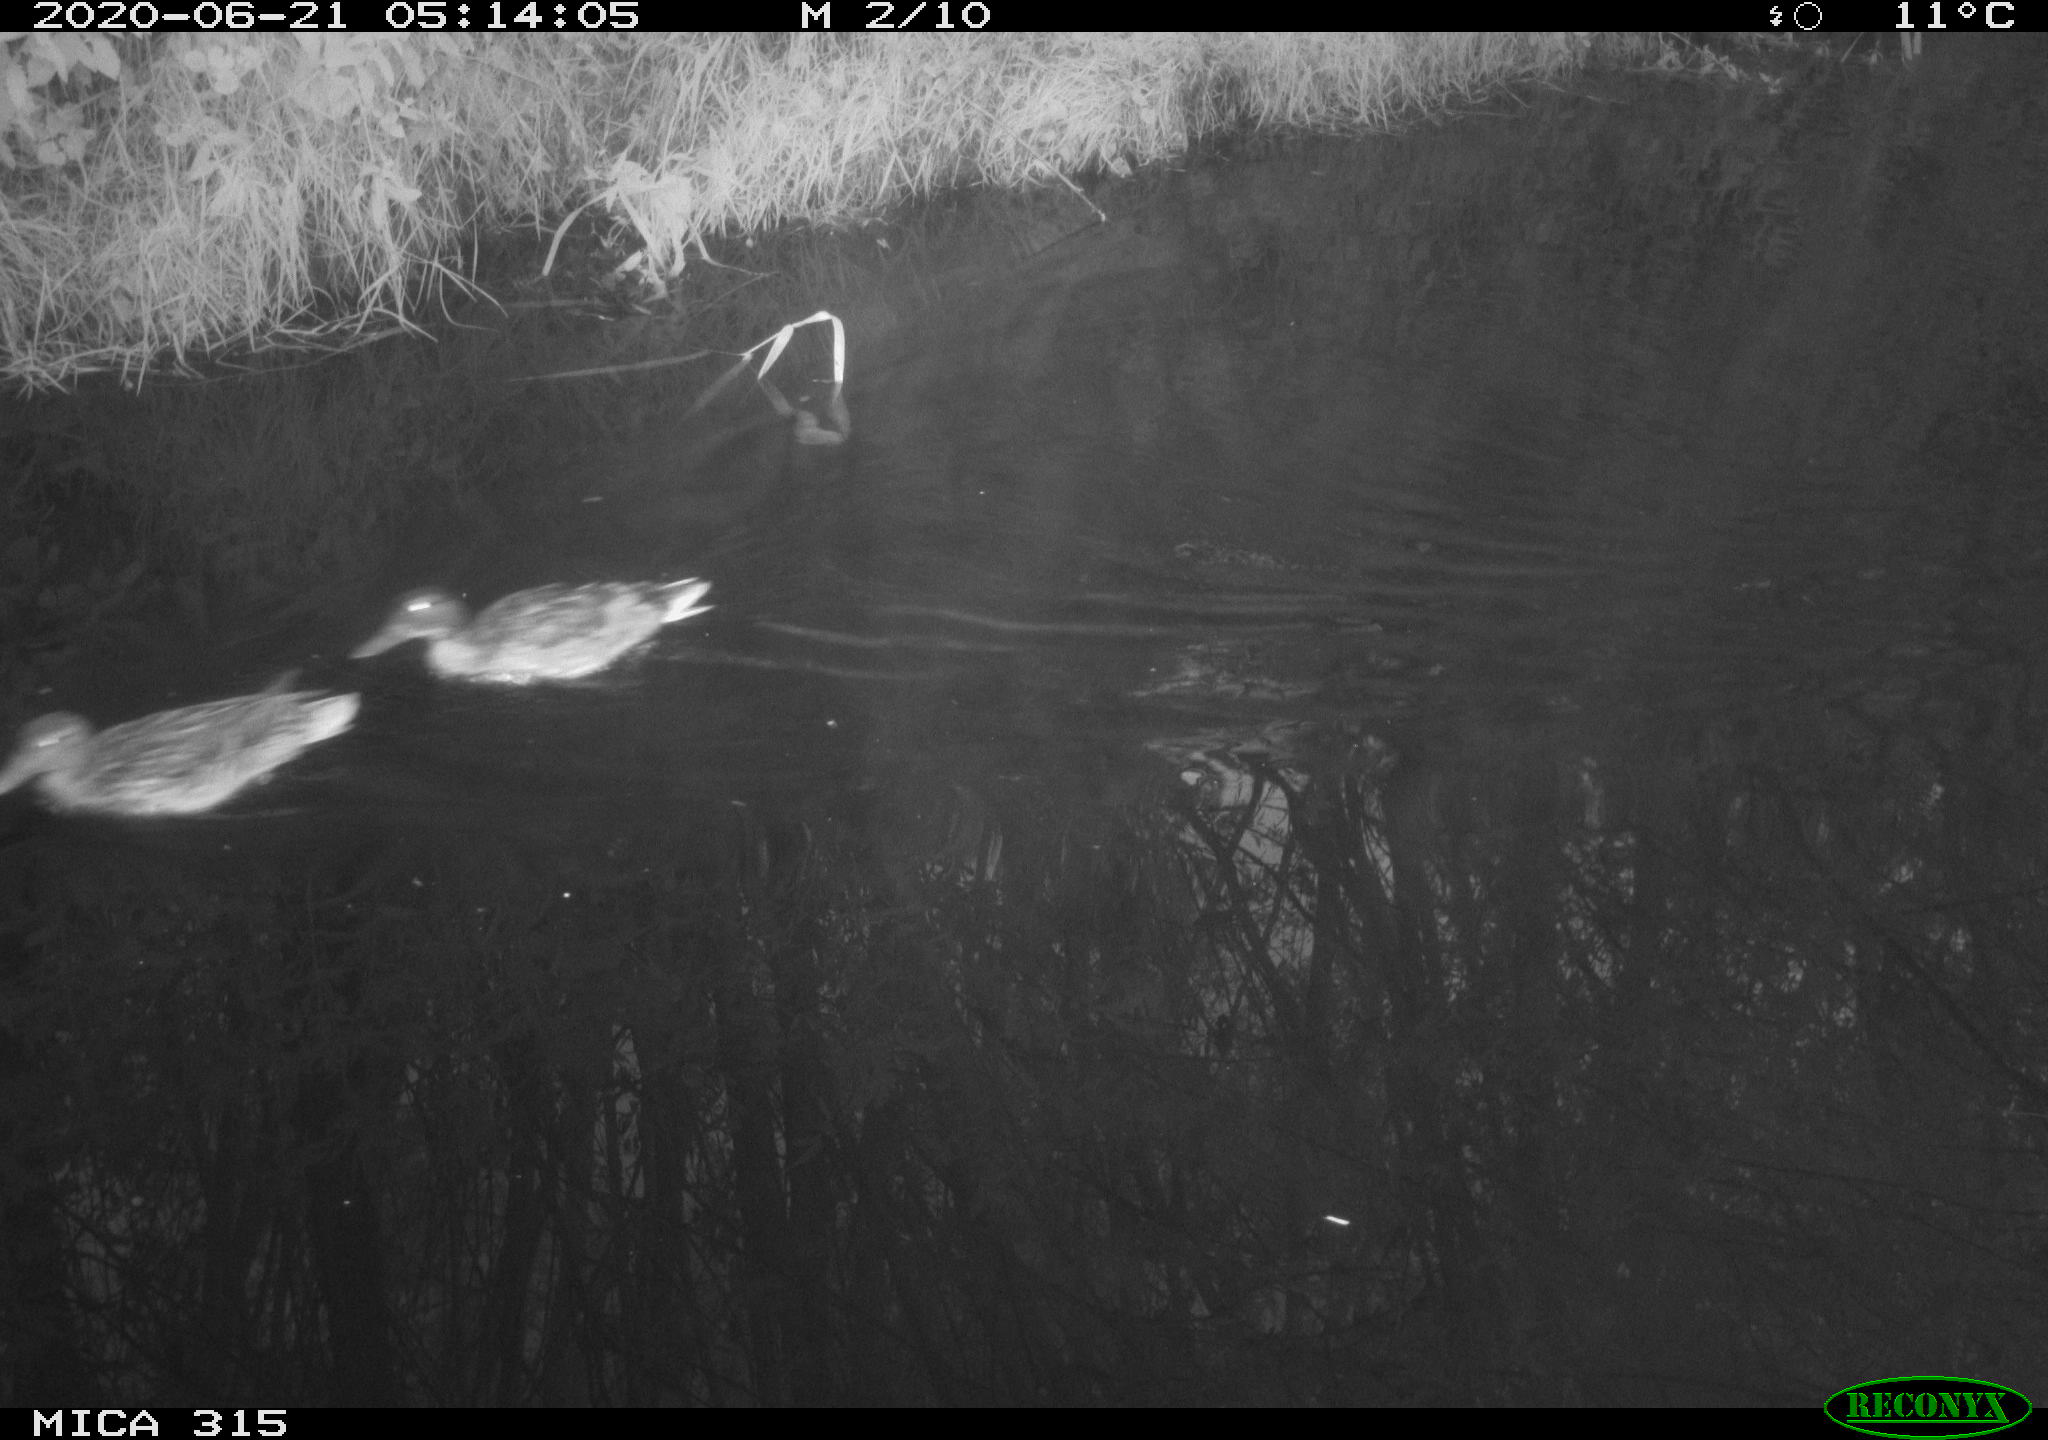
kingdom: Animalia
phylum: Chordata
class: Aves
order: Anseriformes
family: Anatidae
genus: Anas
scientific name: Anas platyrhynchos
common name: Mallard
